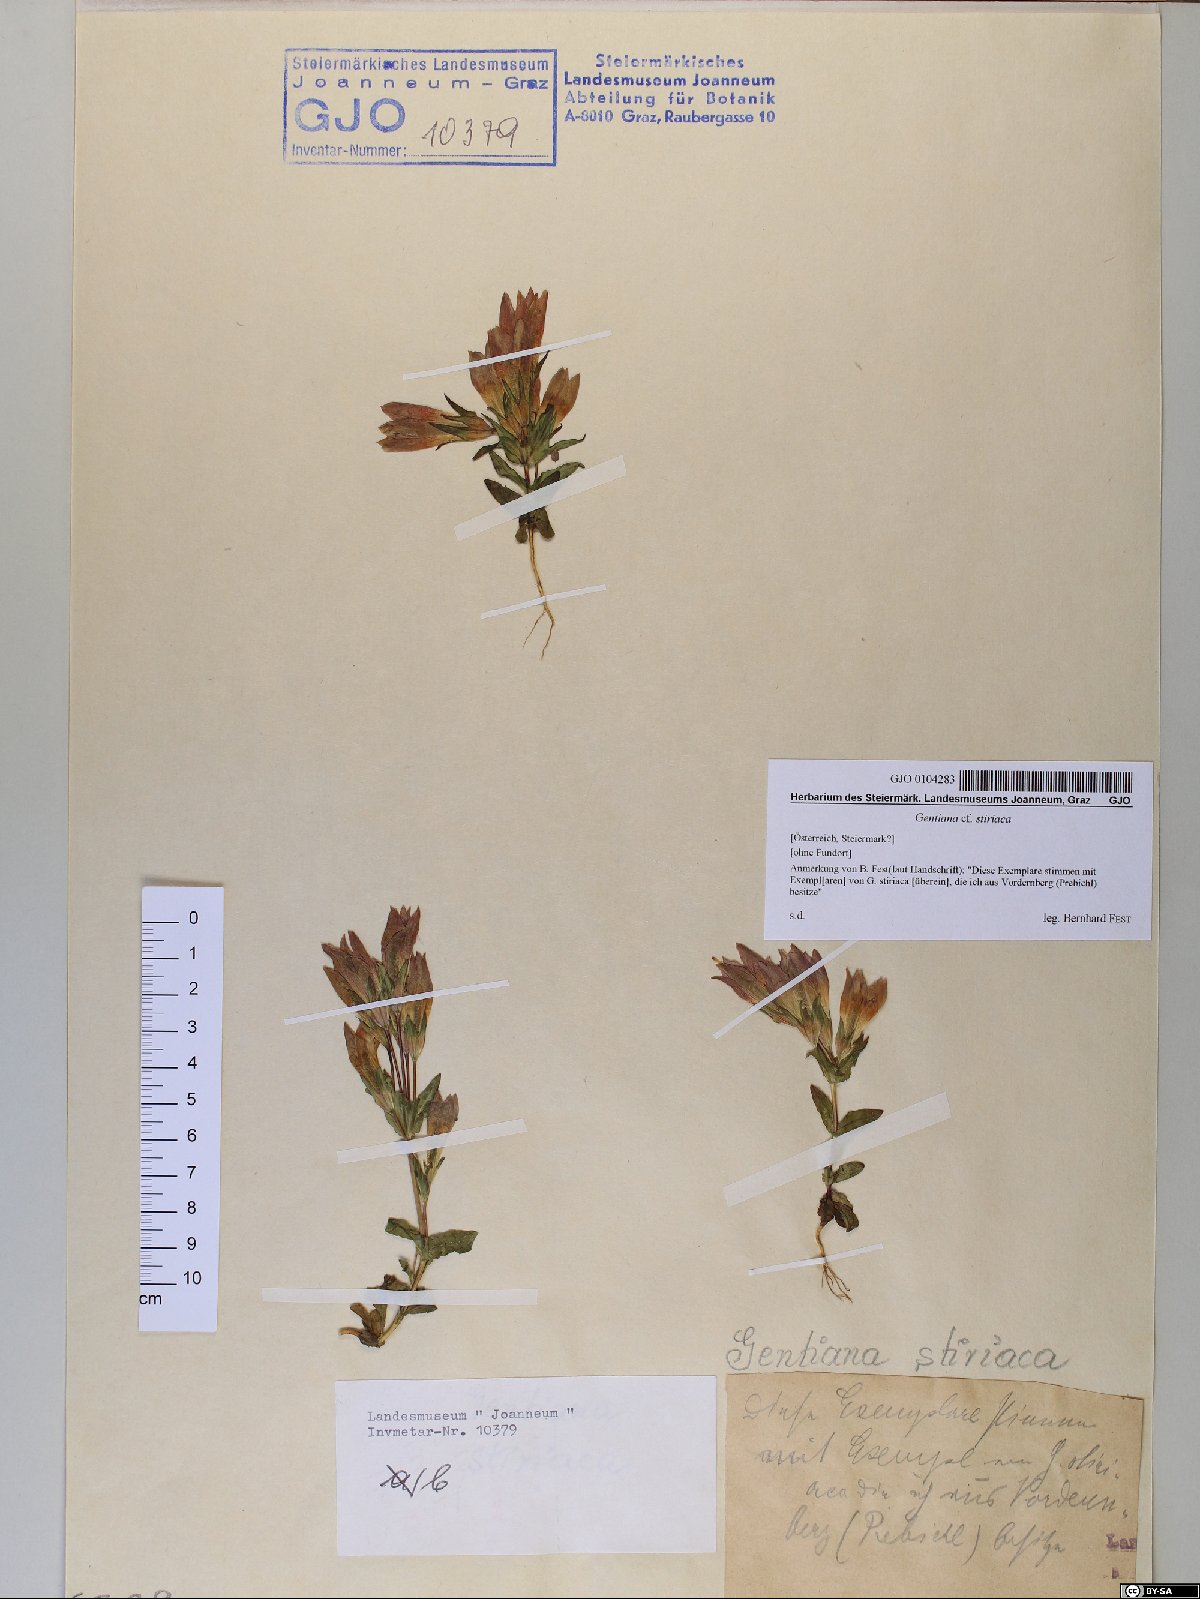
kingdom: Plantae
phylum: Tracheophyta
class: Magnoliopsida
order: Gentianales
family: Gentianaceae
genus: Gentianella
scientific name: Gentianella rhaetica
